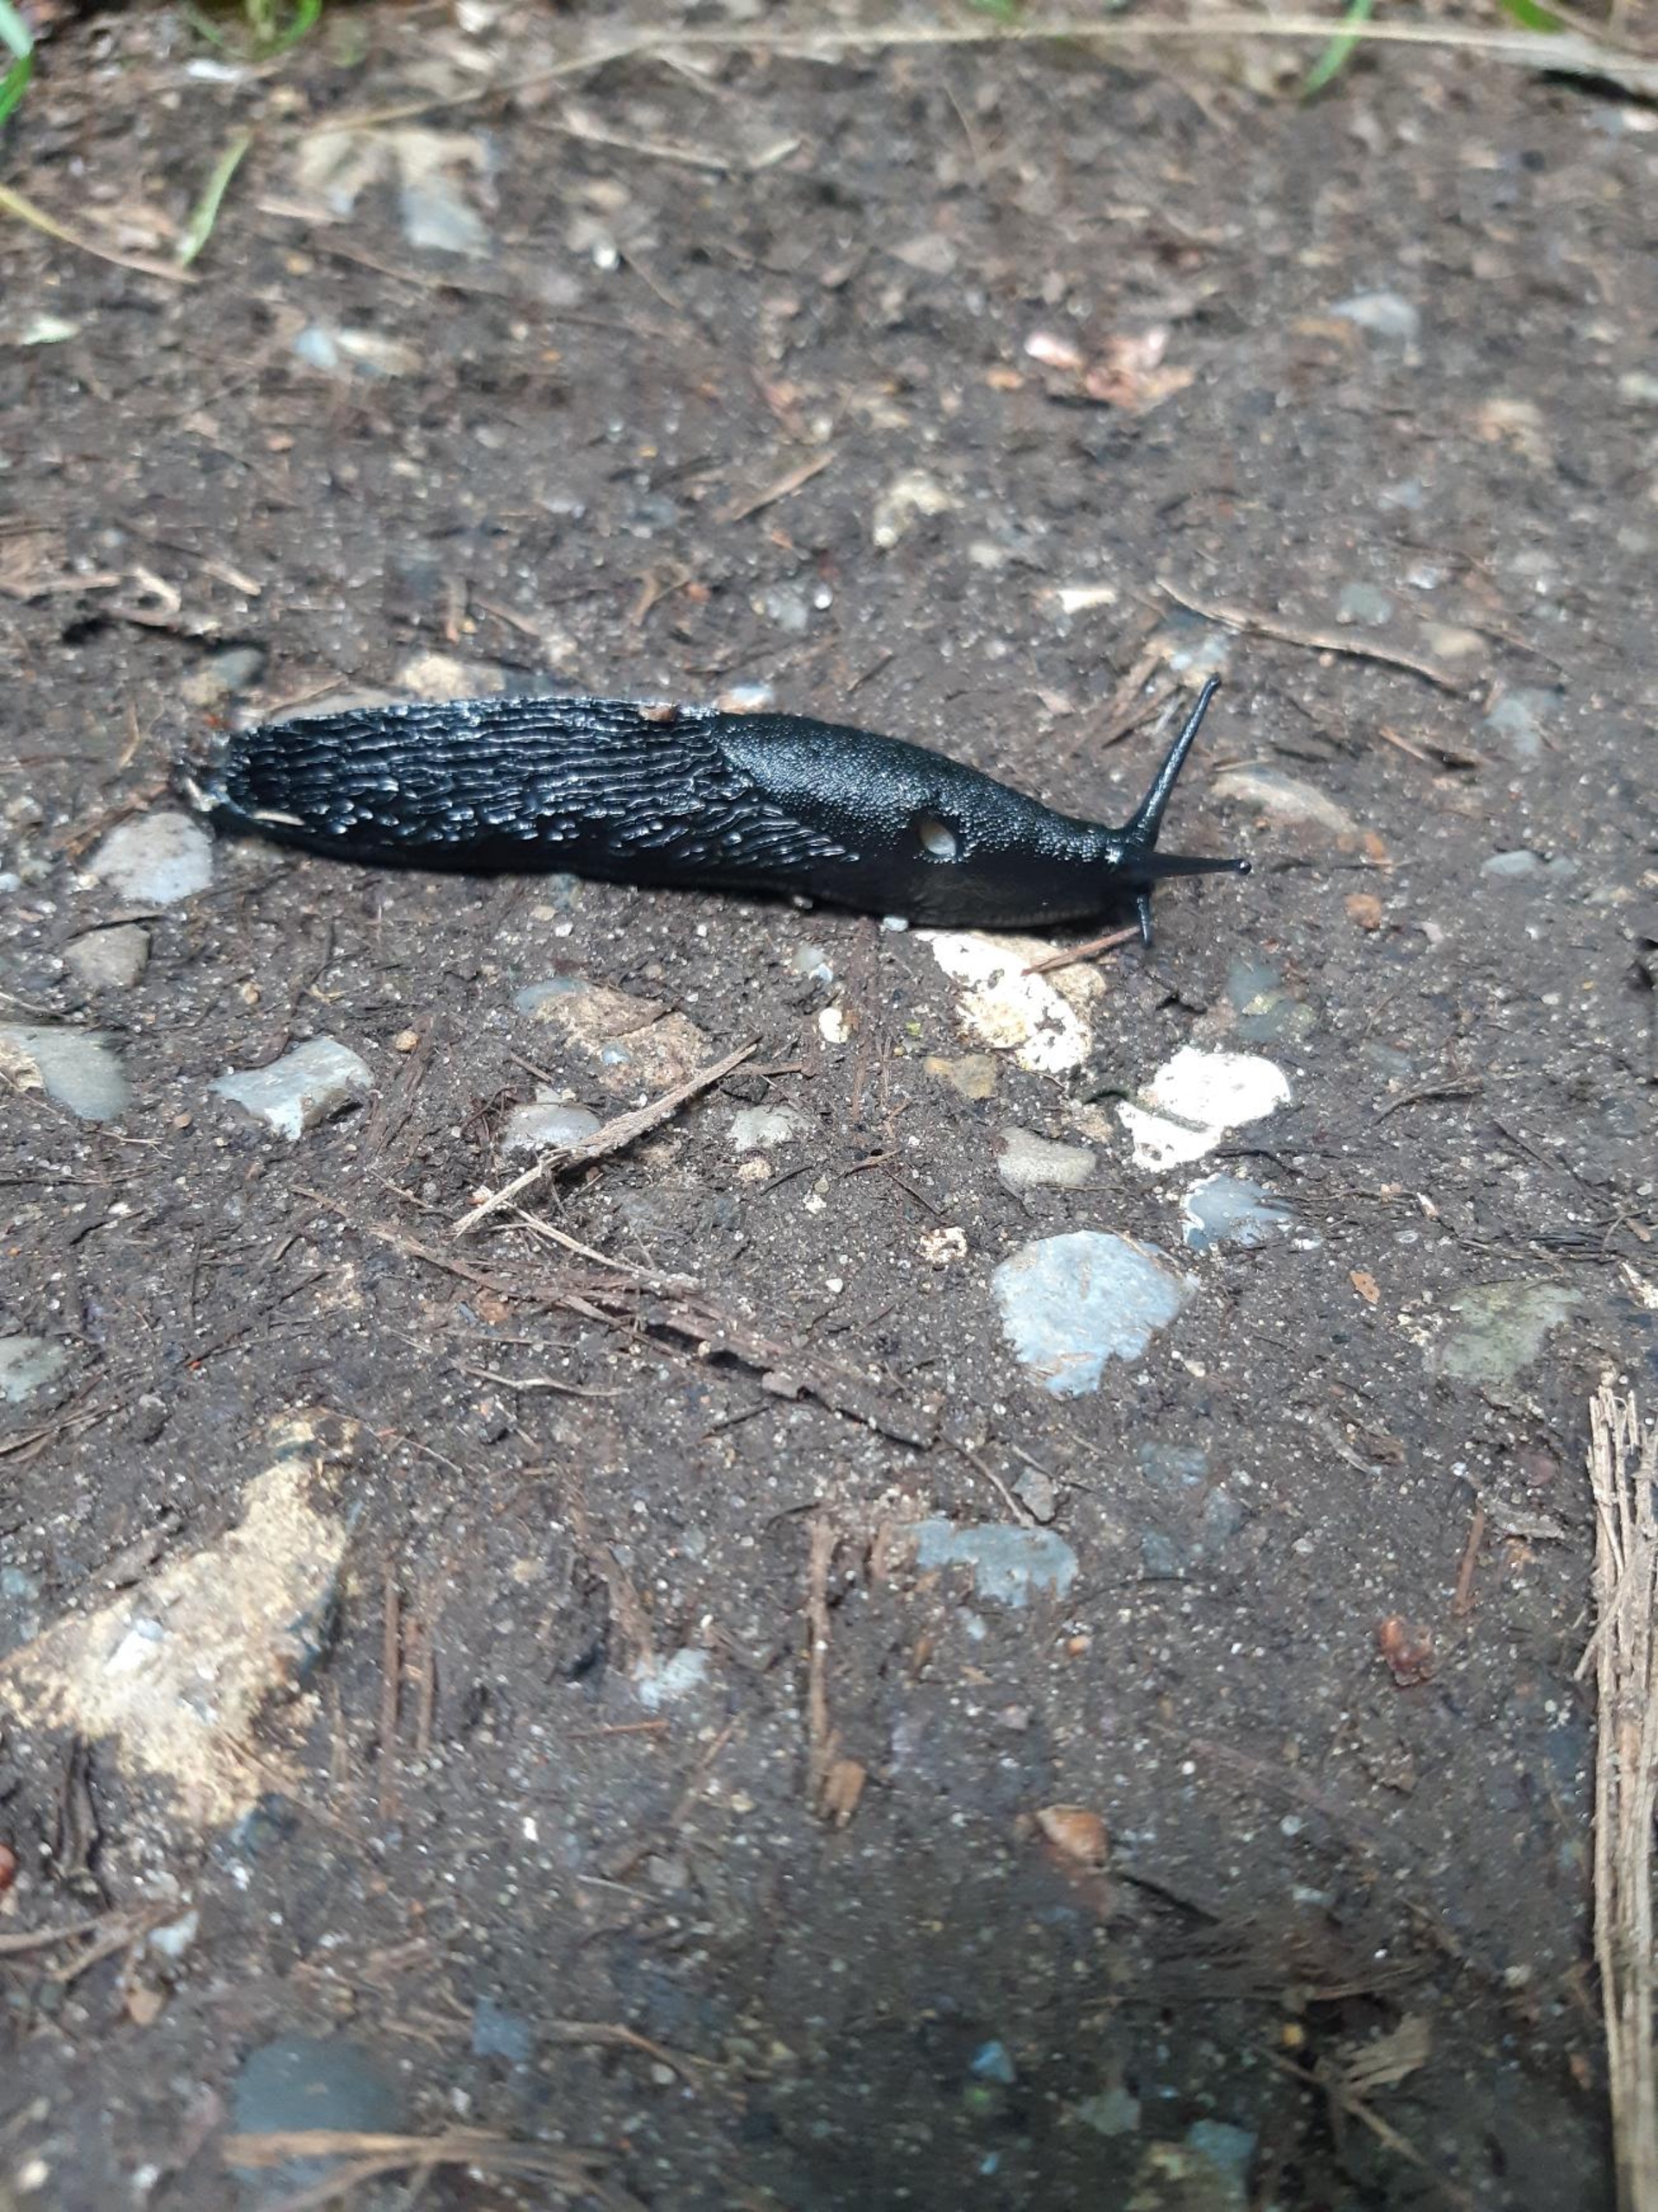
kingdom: Animalia
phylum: Mollusca
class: Gastropoda
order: Stylommatophora
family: Arionidae
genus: Arion
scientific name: Arion ater
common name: Sort skovsnegl
